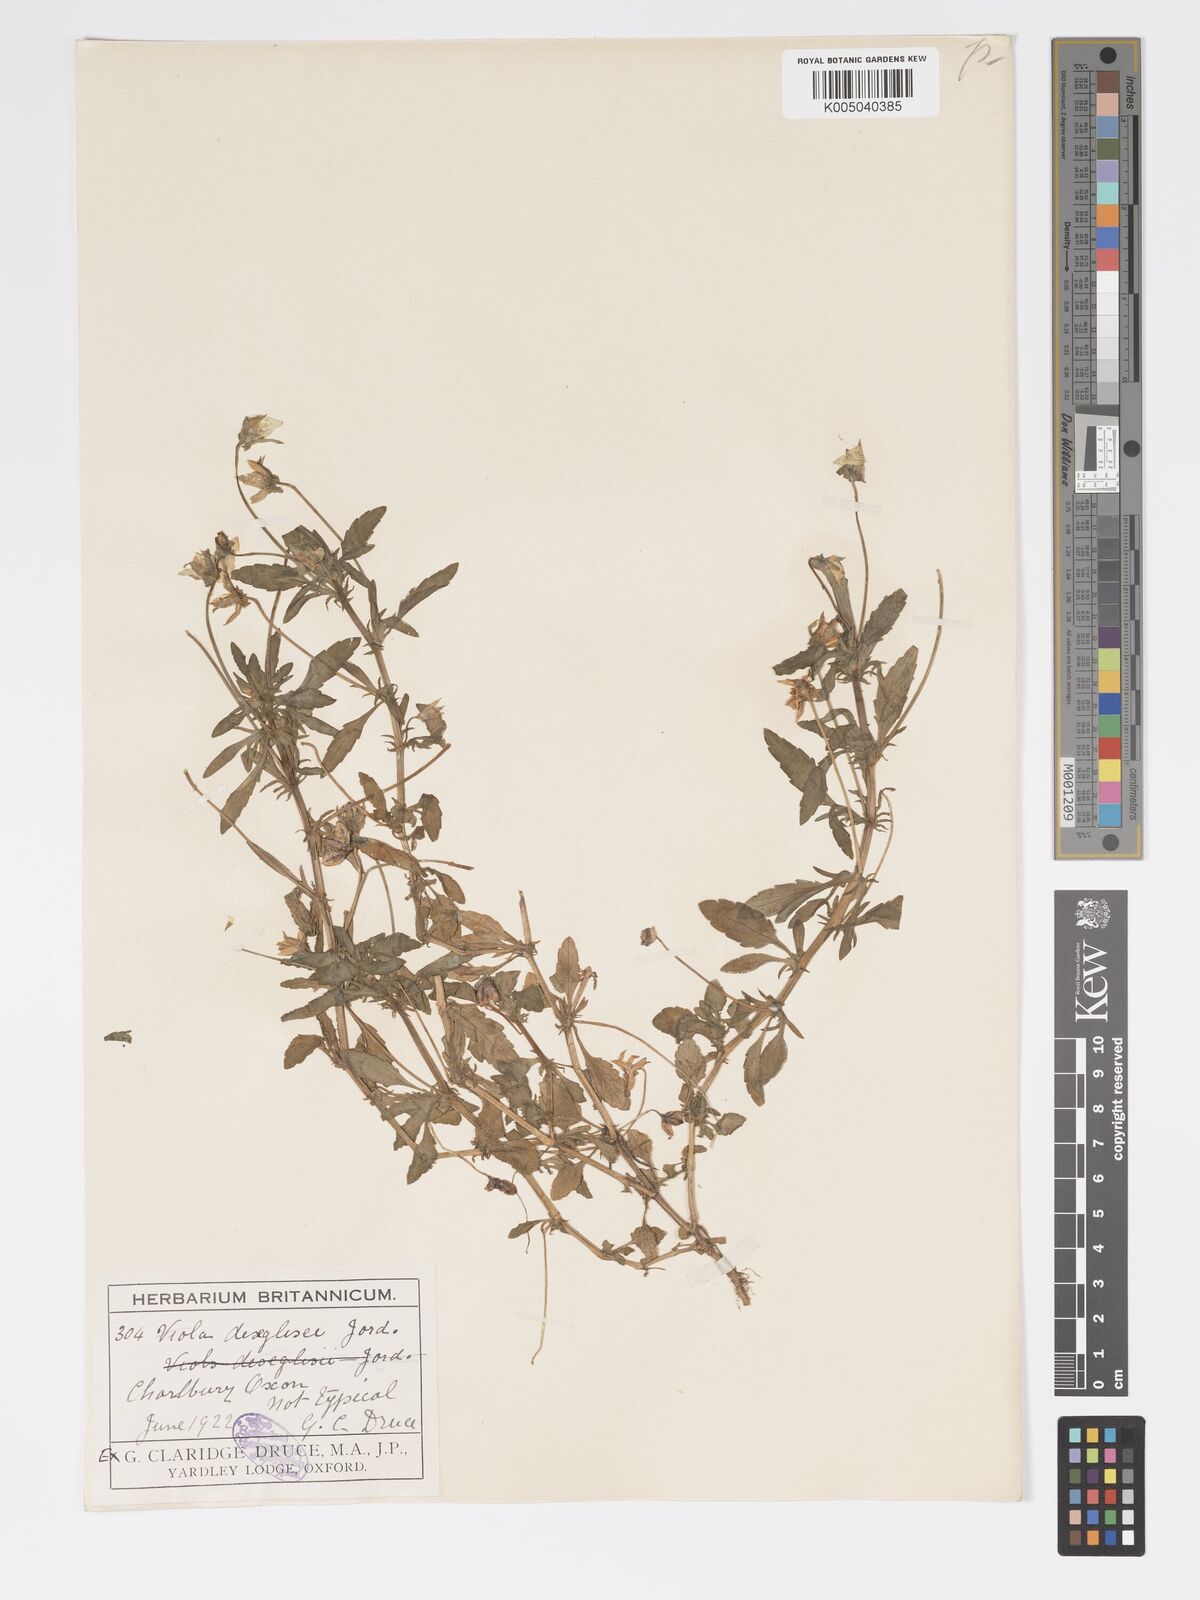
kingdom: Plantae
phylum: Tracheophyta
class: Magnoliopsida
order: Malpighiales
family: Violaceae
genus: Viola
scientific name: Viola arvensis
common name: Field pansy
